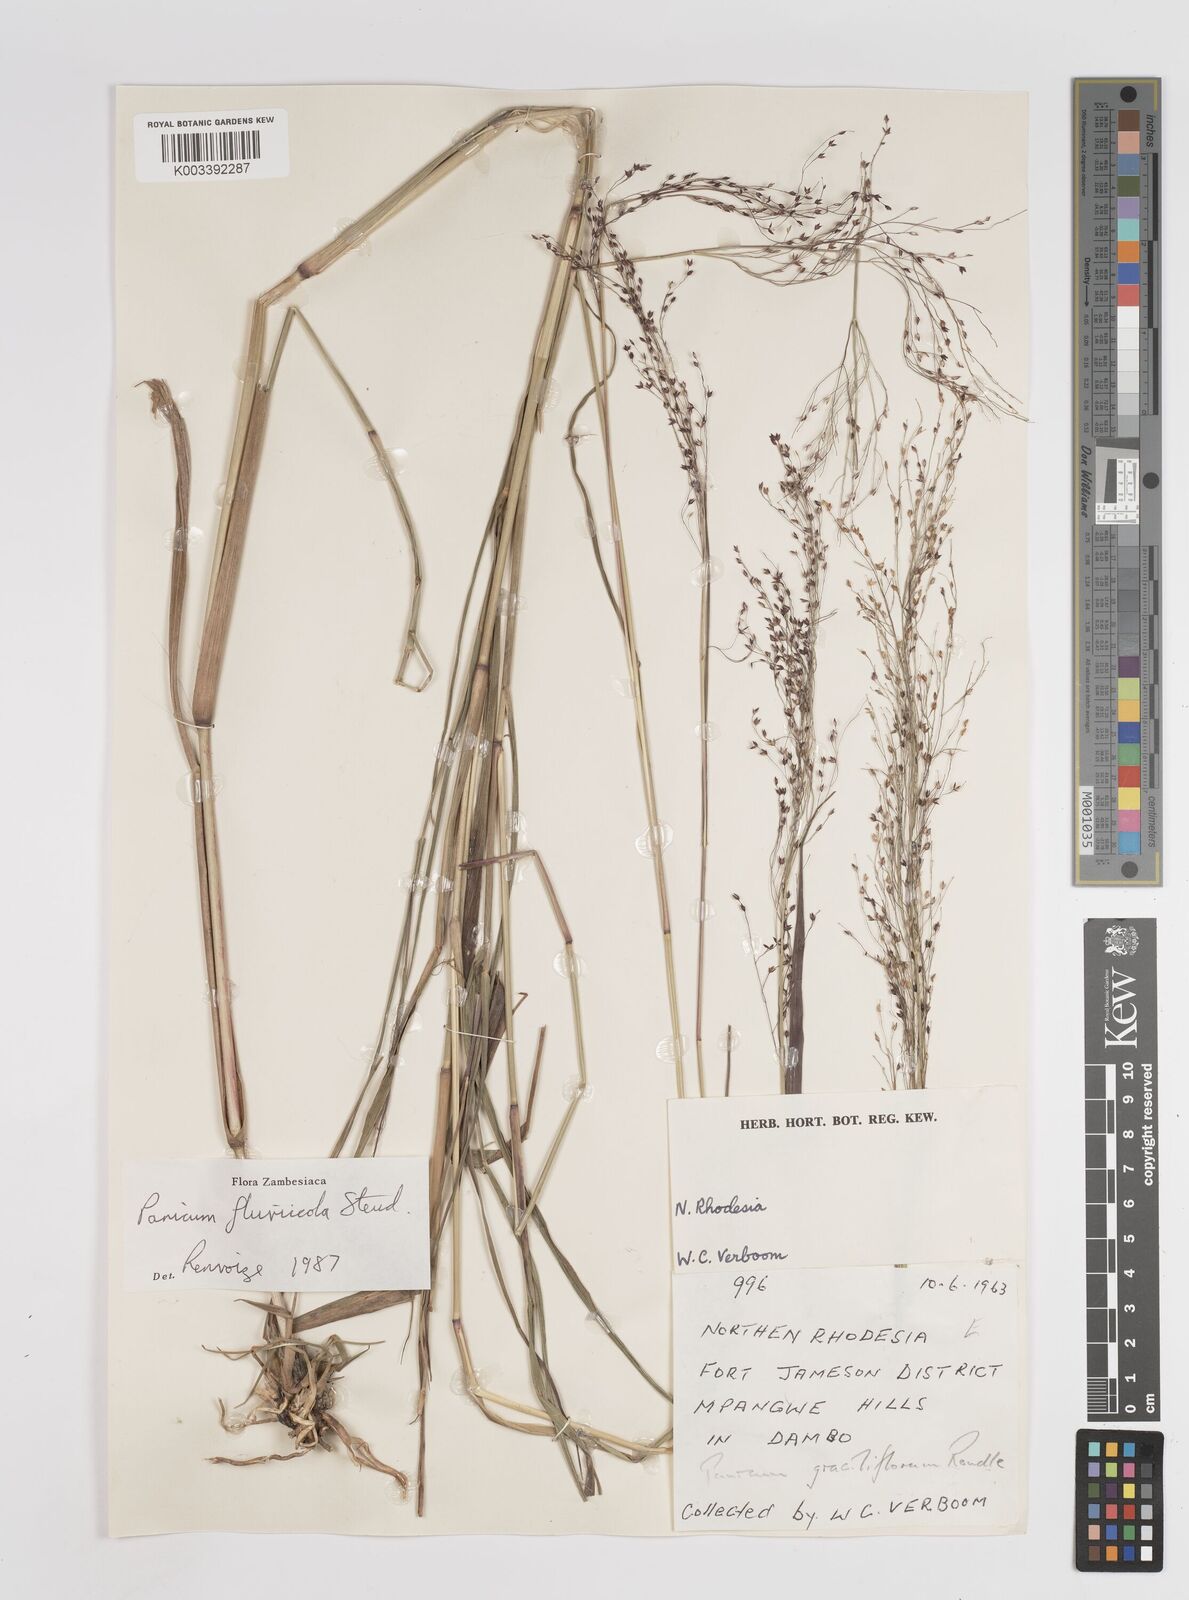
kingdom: Plantae
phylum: Tracheophyta
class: Liliopsida
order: Poales
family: Poaceae
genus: Panicum
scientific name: Panicum fluviicola
